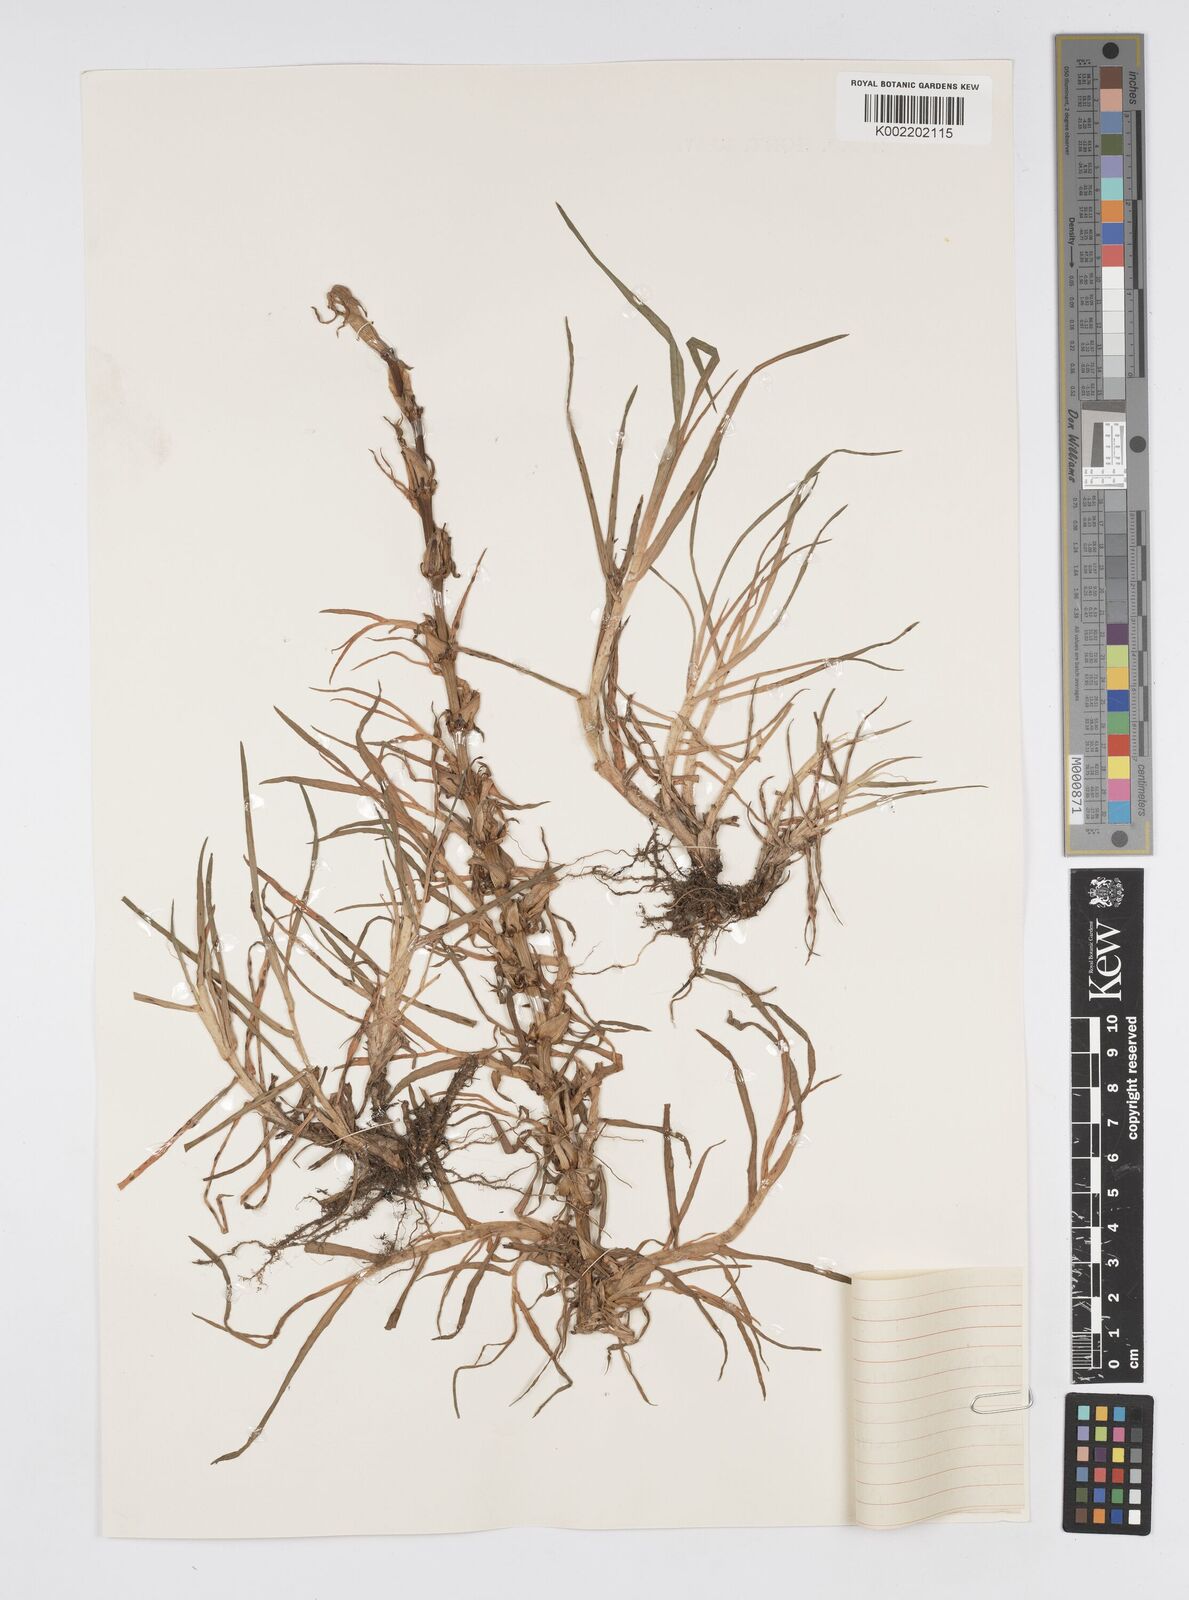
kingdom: Plantae
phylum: Tracheophyta
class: Liliopsida
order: Poales
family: Poaceae
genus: Cenchrus
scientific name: Cenchrus clandestinus
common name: Kikuyugrass
